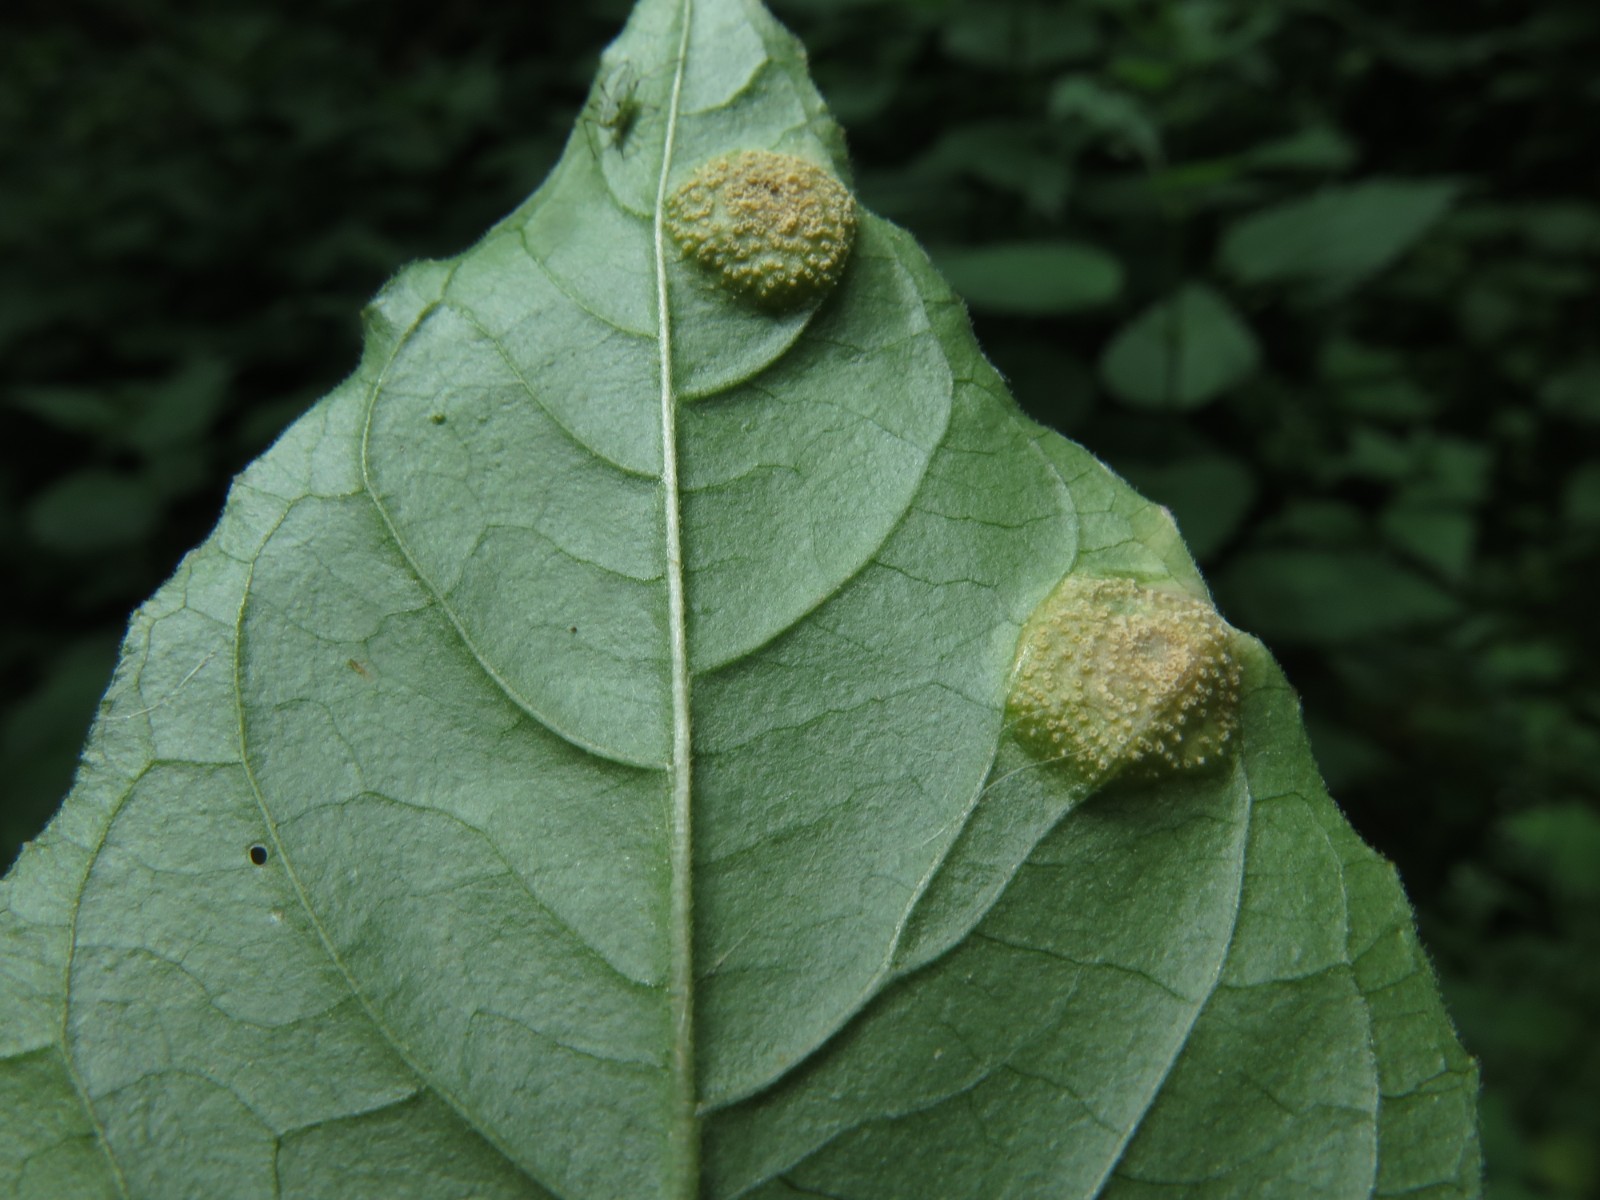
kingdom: Fungi
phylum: Basidiomycota
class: Pucciniomycetes
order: Pucciniales
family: Pucciniaceae
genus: Puccinia
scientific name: Puccinia circaeae
